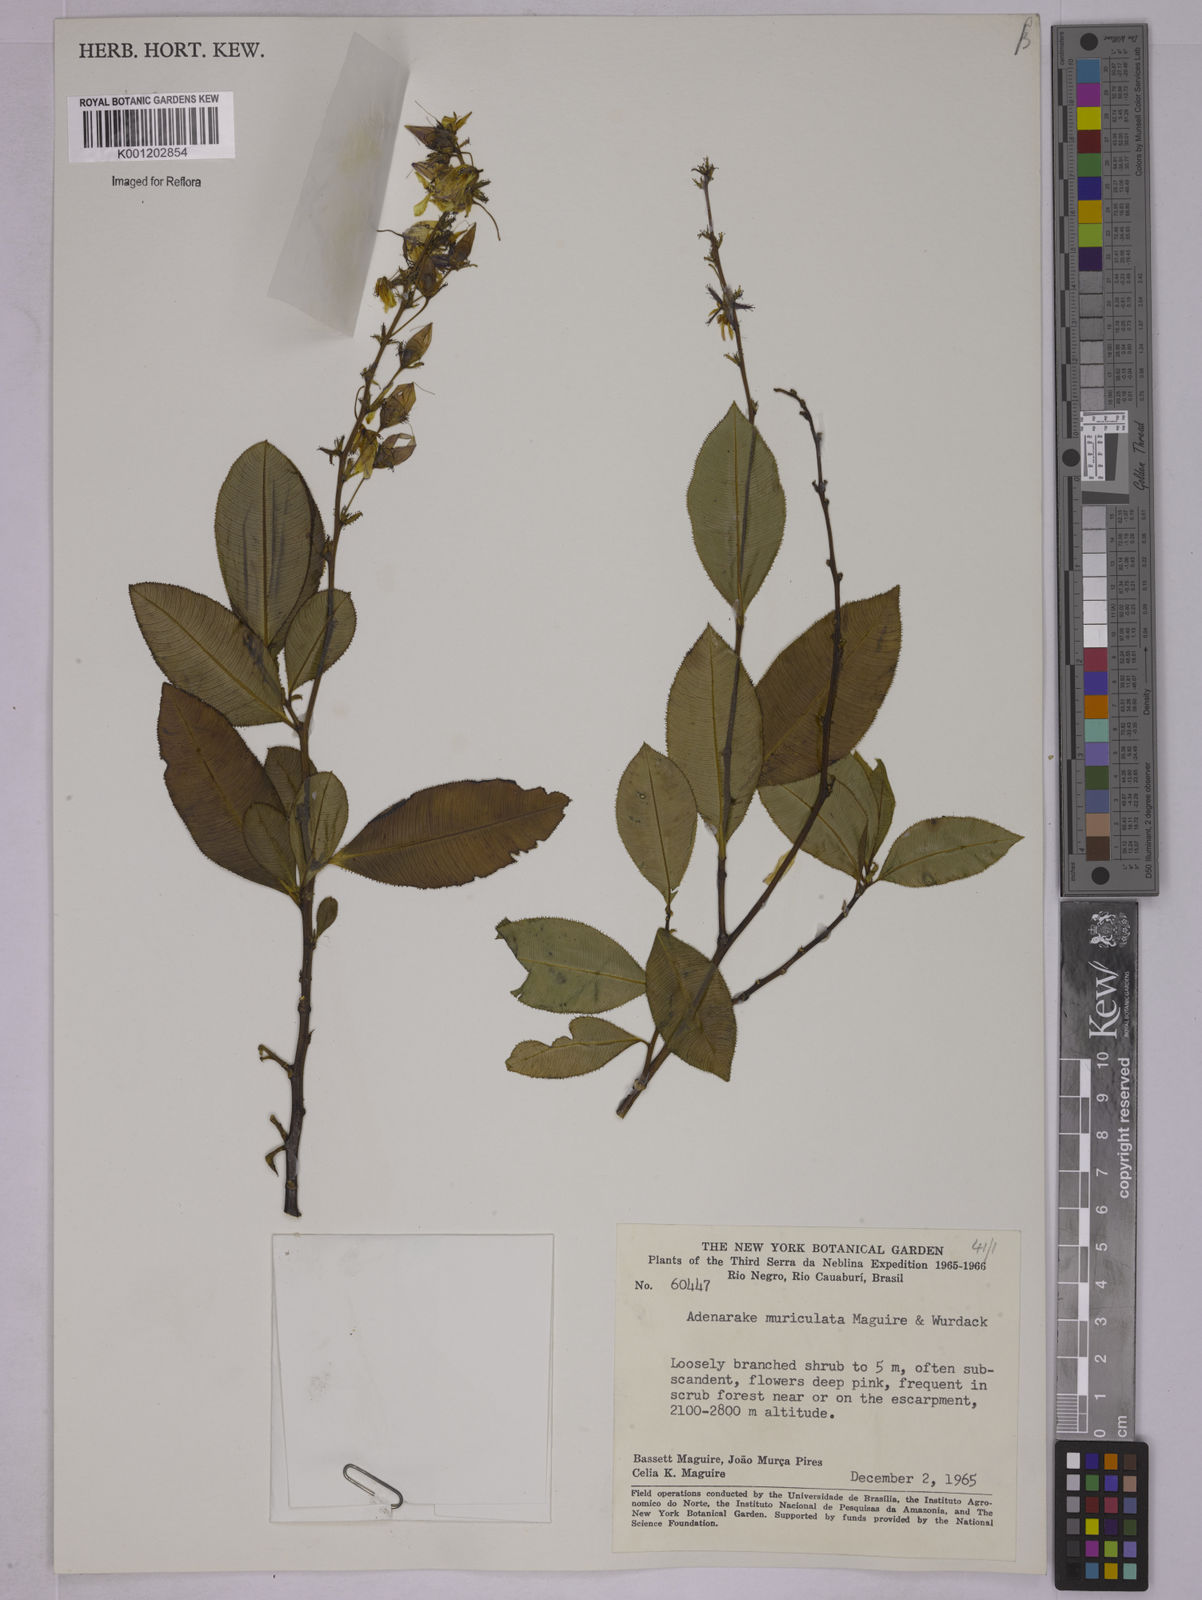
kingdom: Plantae
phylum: Tracheophyta
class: Magnoliopsida
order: Malpighiales
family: Ochnaceae
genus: Sauvagesia
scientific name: Sauvagesia muriculata
